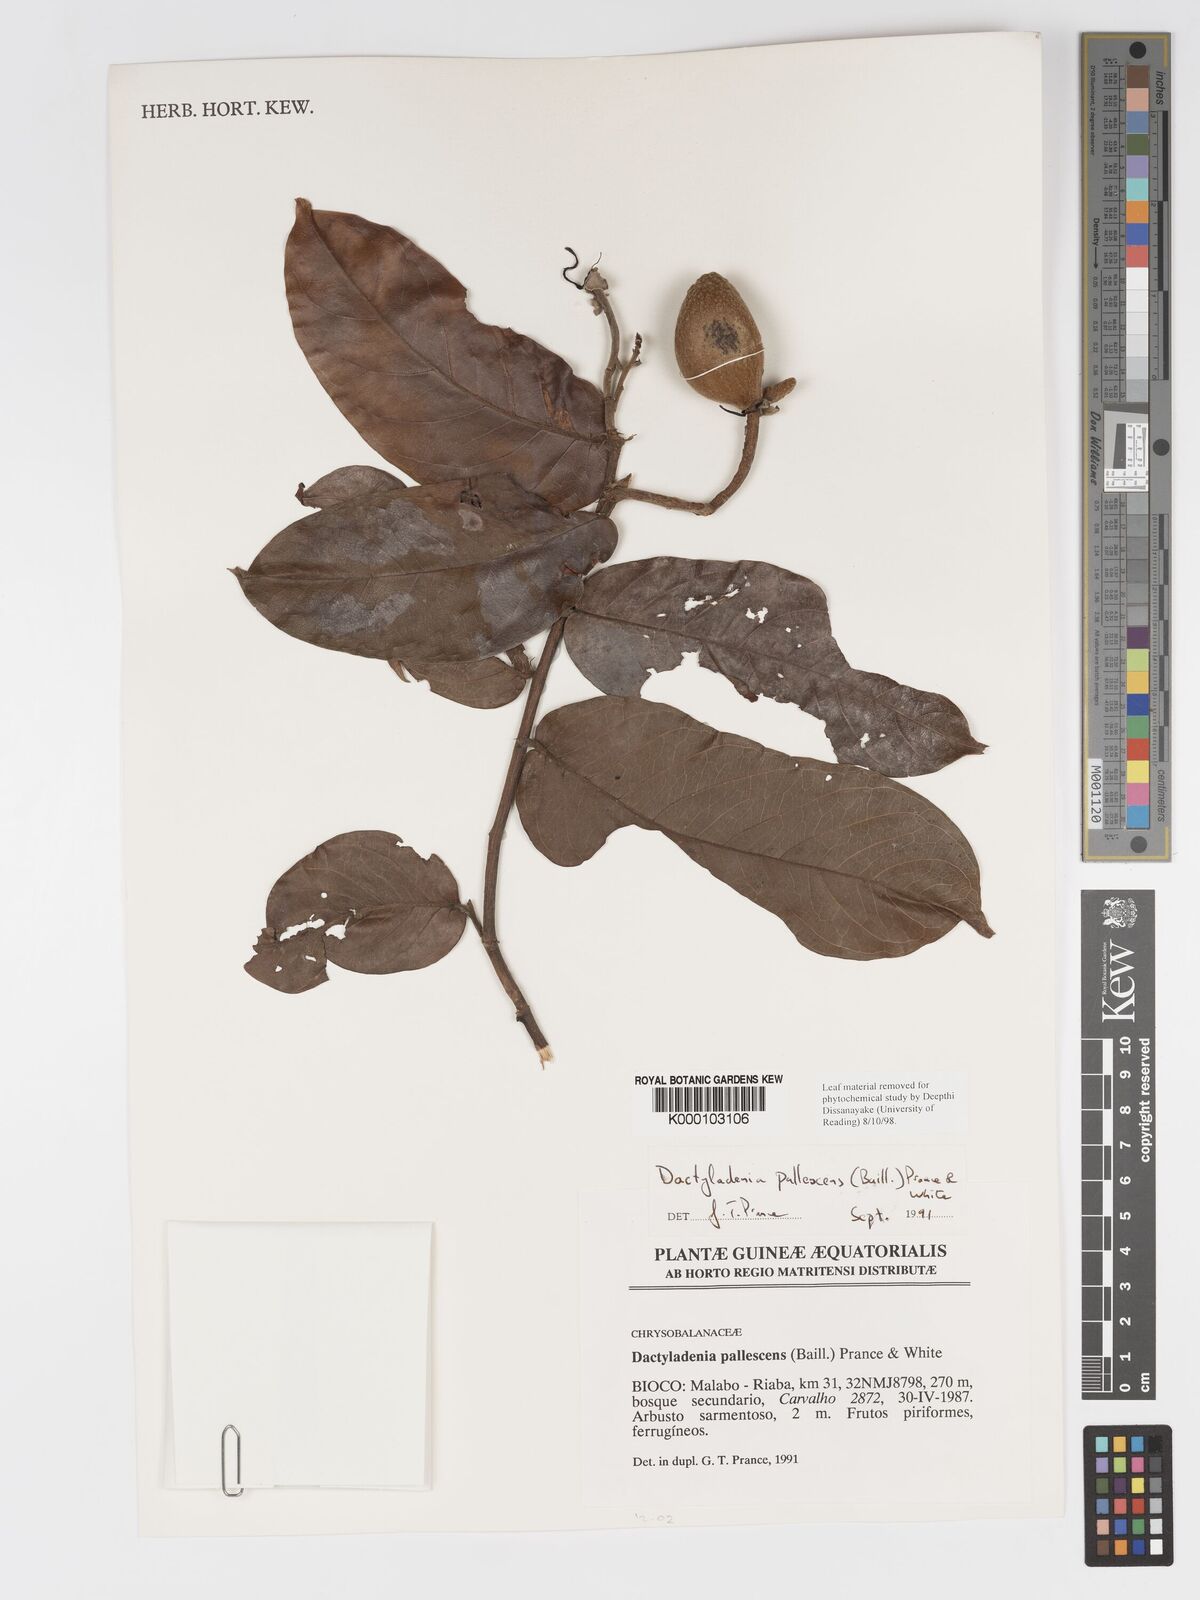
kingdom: Plantae
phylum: Tracheophyta
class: Magnoliopsida
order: Malpighiales
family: Chrysobalanaceae
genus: Dactyladenia
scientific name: Dactyladenia pallescens
